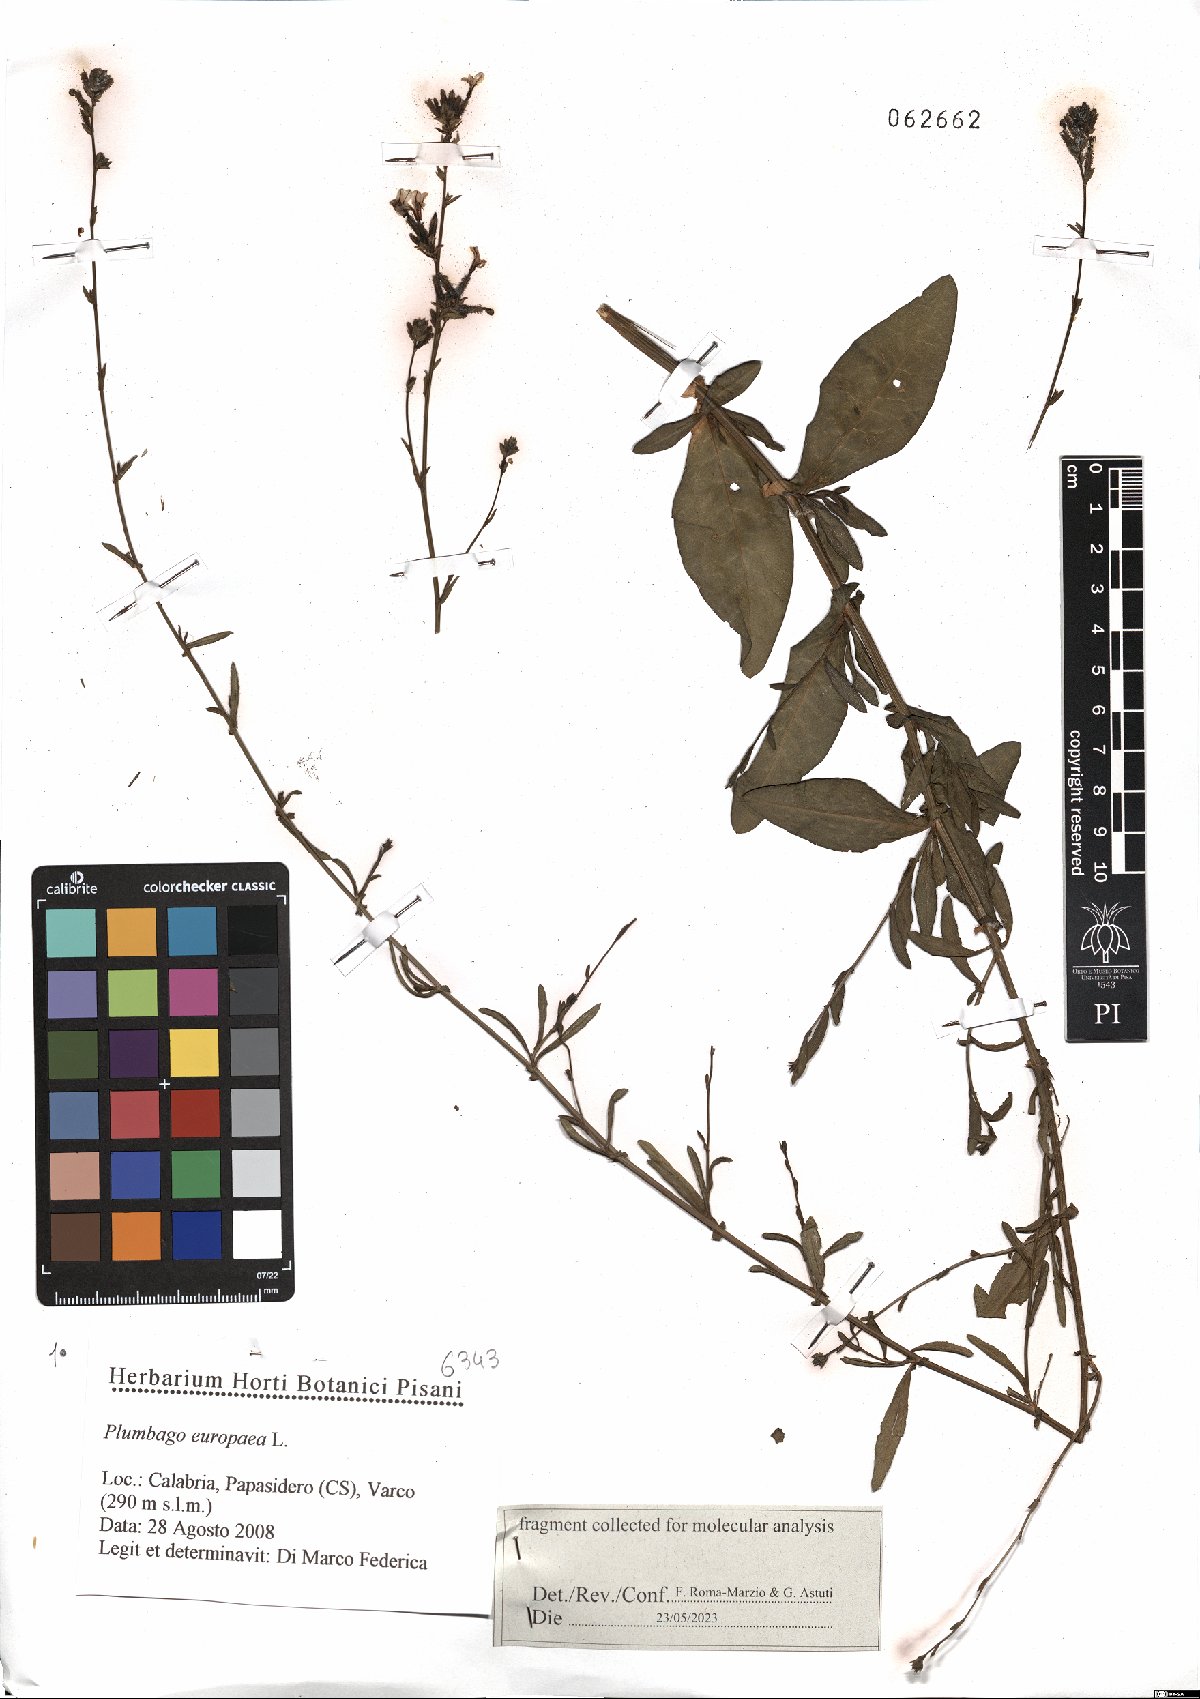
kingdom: Plantae
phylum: Tracheophyta
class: Magnoliopsida
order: Caryophyllales
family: Plumbaginaceae
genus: Plumbago
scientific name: Plumbago europaea
